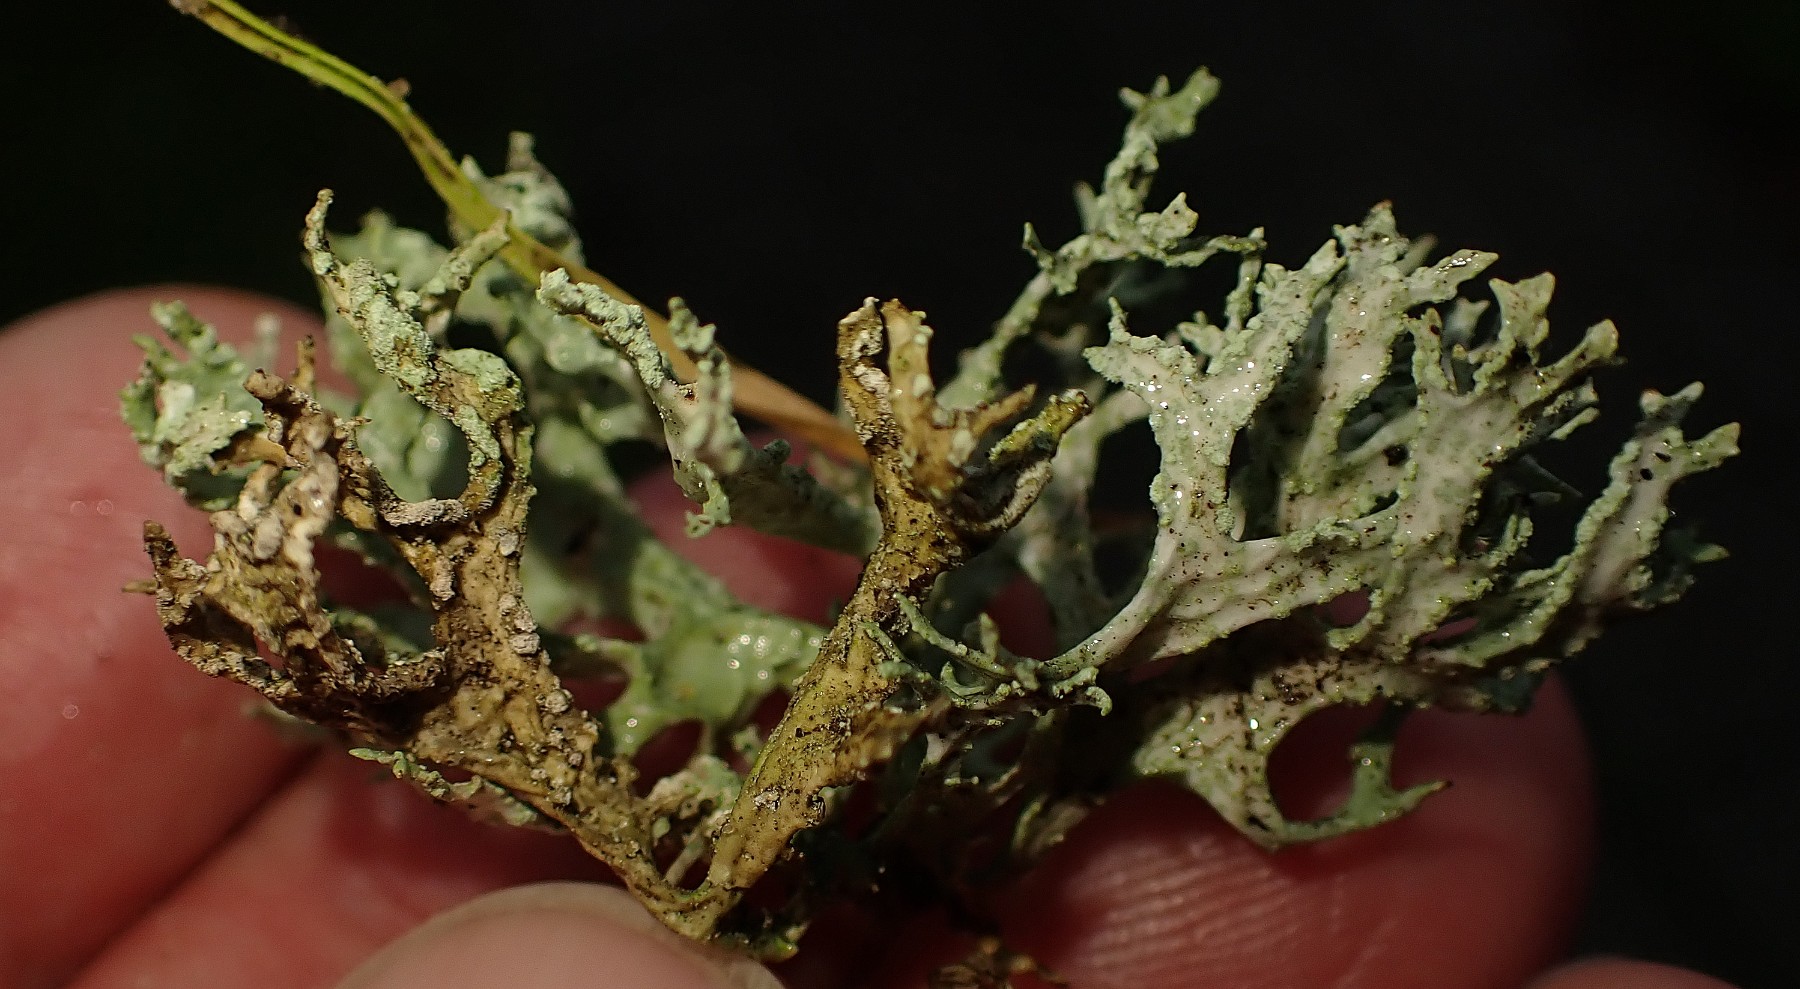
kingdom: Fungi
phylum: Ascomycota
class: Lecanoromycetes
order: Lecanorales
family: Parmeliaceae
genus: Evernia
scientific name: Evernia prunastri
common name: almindelig slåenlav
